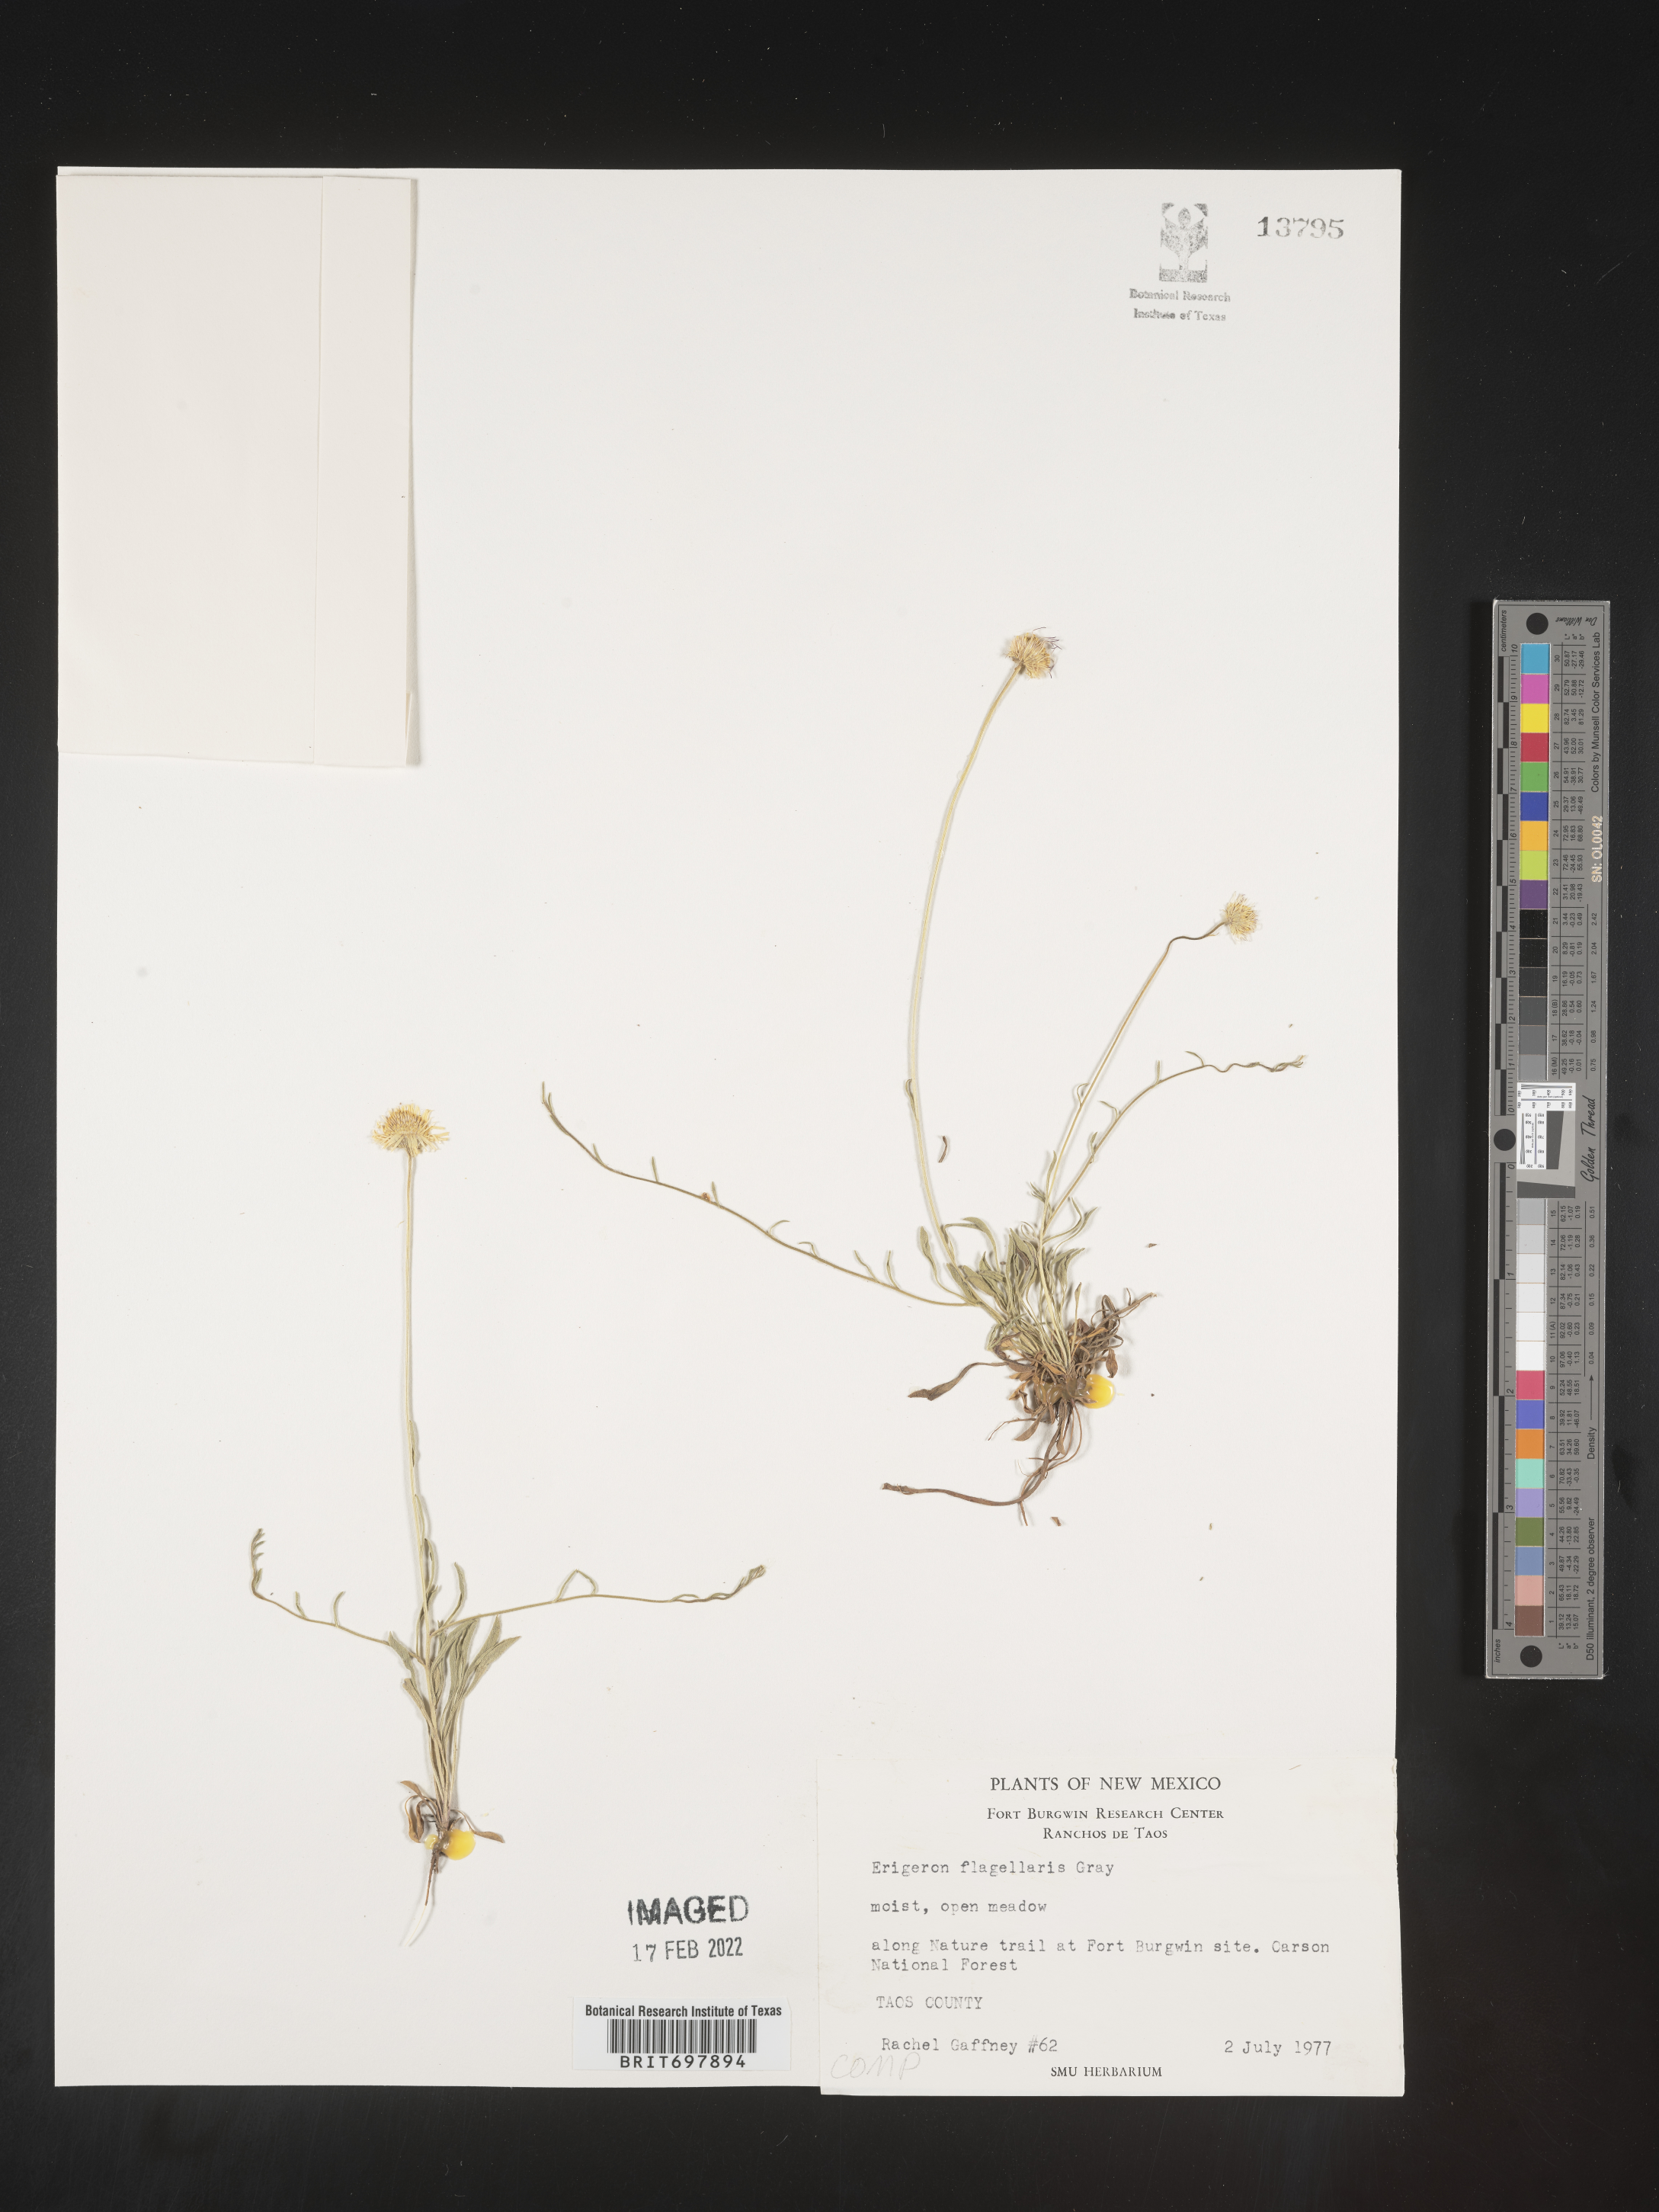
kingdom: Plantae
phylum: Tracheophyta
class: Magnoliopsida
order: Asterales
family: Asteraceae
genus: Erigeron
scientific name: Erigeron flagellaris
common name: Running fleabane
